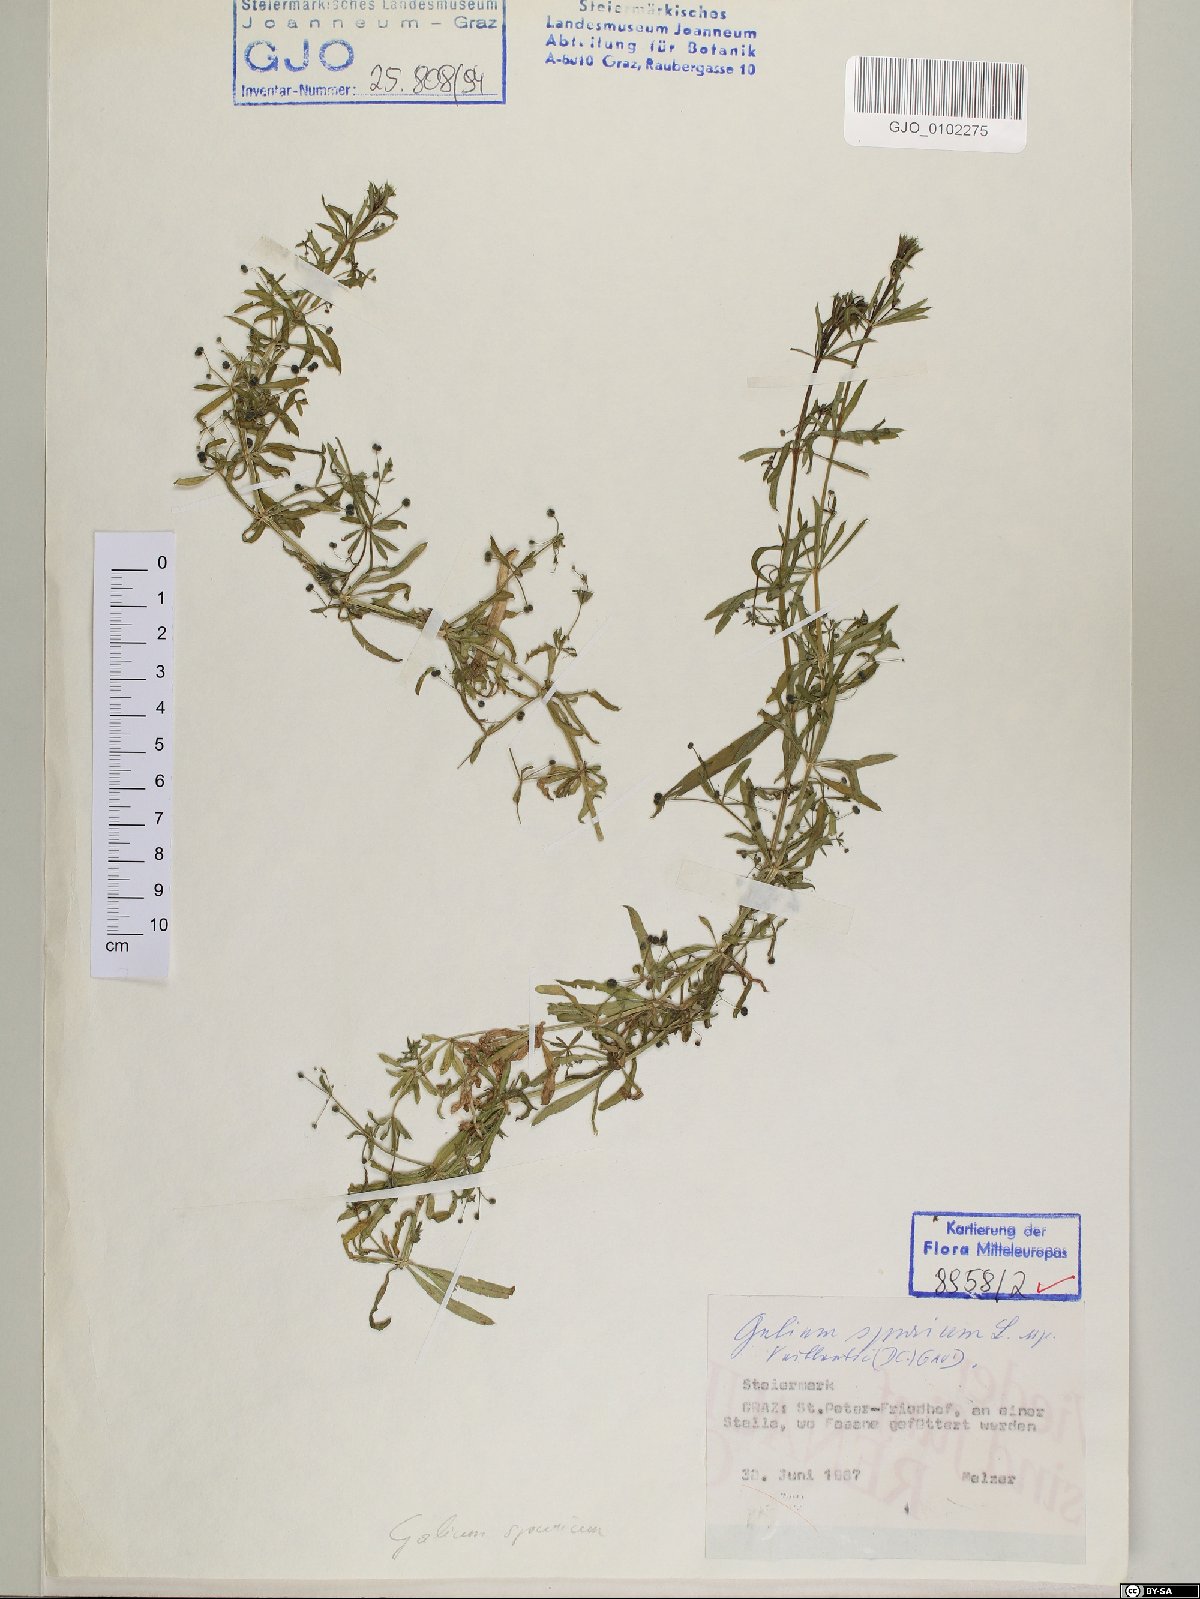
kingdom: Plantae
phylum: Tracheophyta
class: Magnoliopsida
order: Gentianales
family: Rubiaceae
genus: Galium
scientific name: Galium spurium
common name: False cleavers
